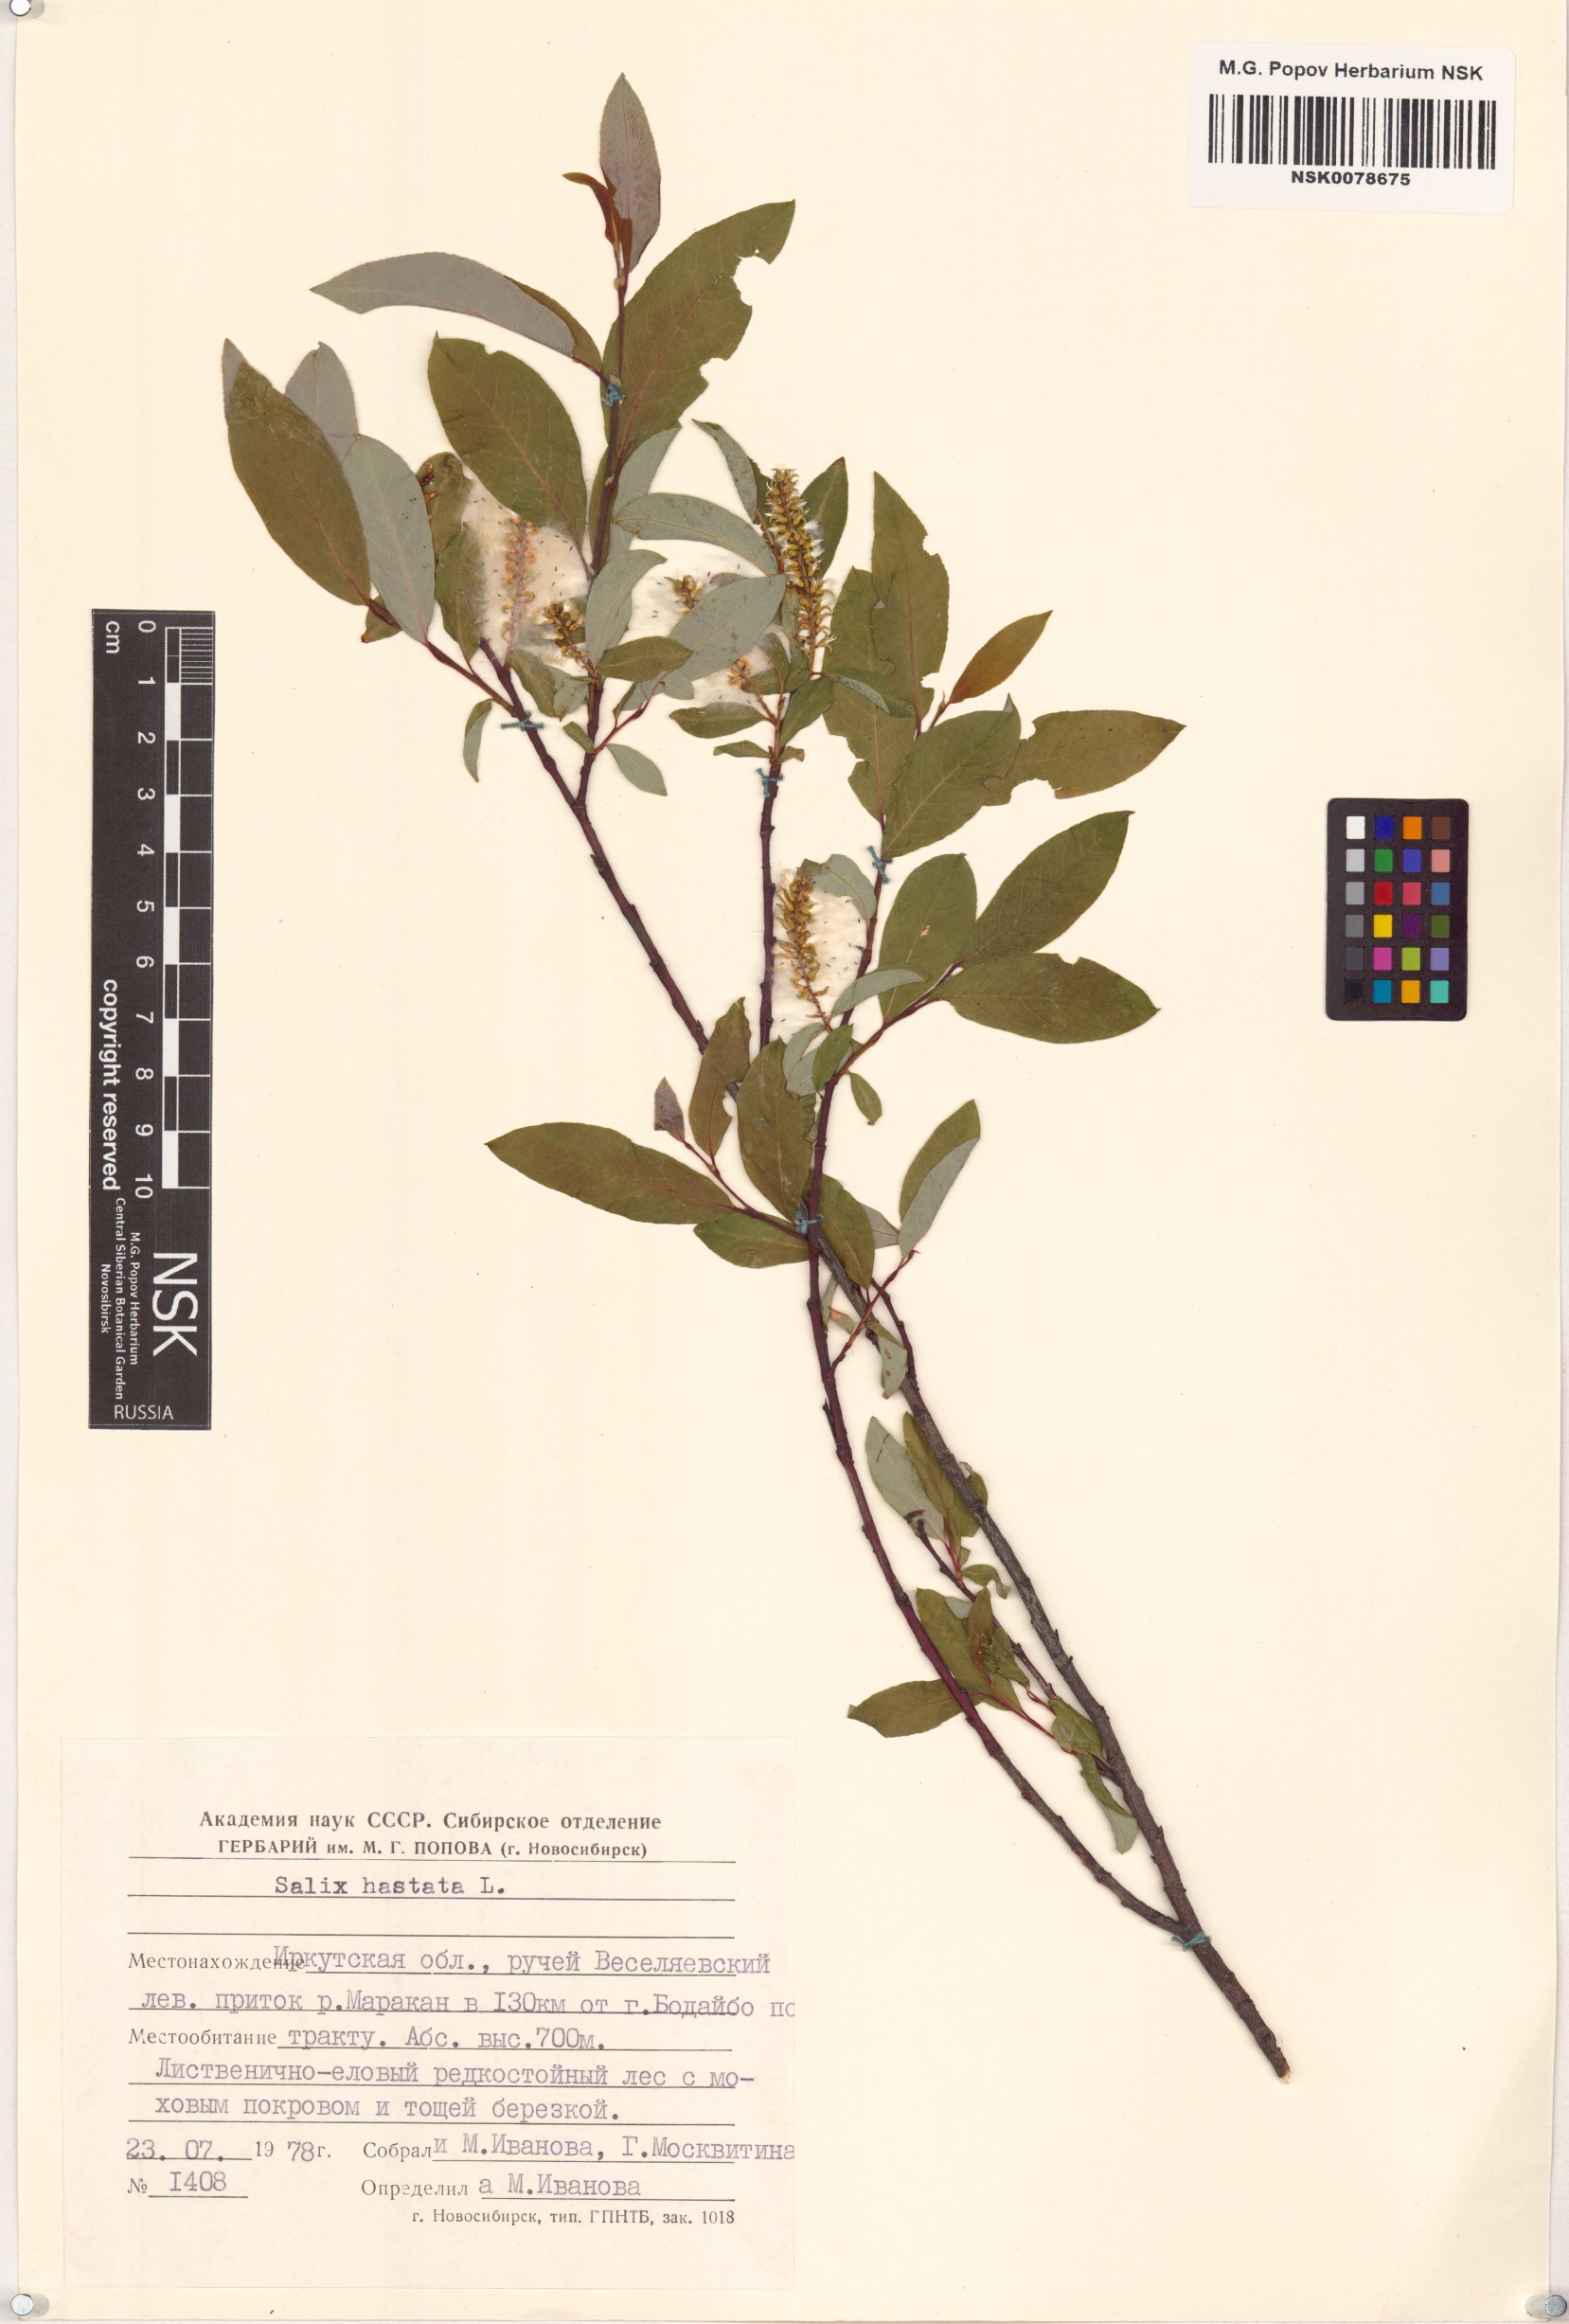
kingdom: Plantae
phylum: Tracheophyta
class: Magnoliopsida
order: Malpighiales
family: Salicaceae
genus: Salix
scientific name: Salix hastata
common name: Halberd willow
